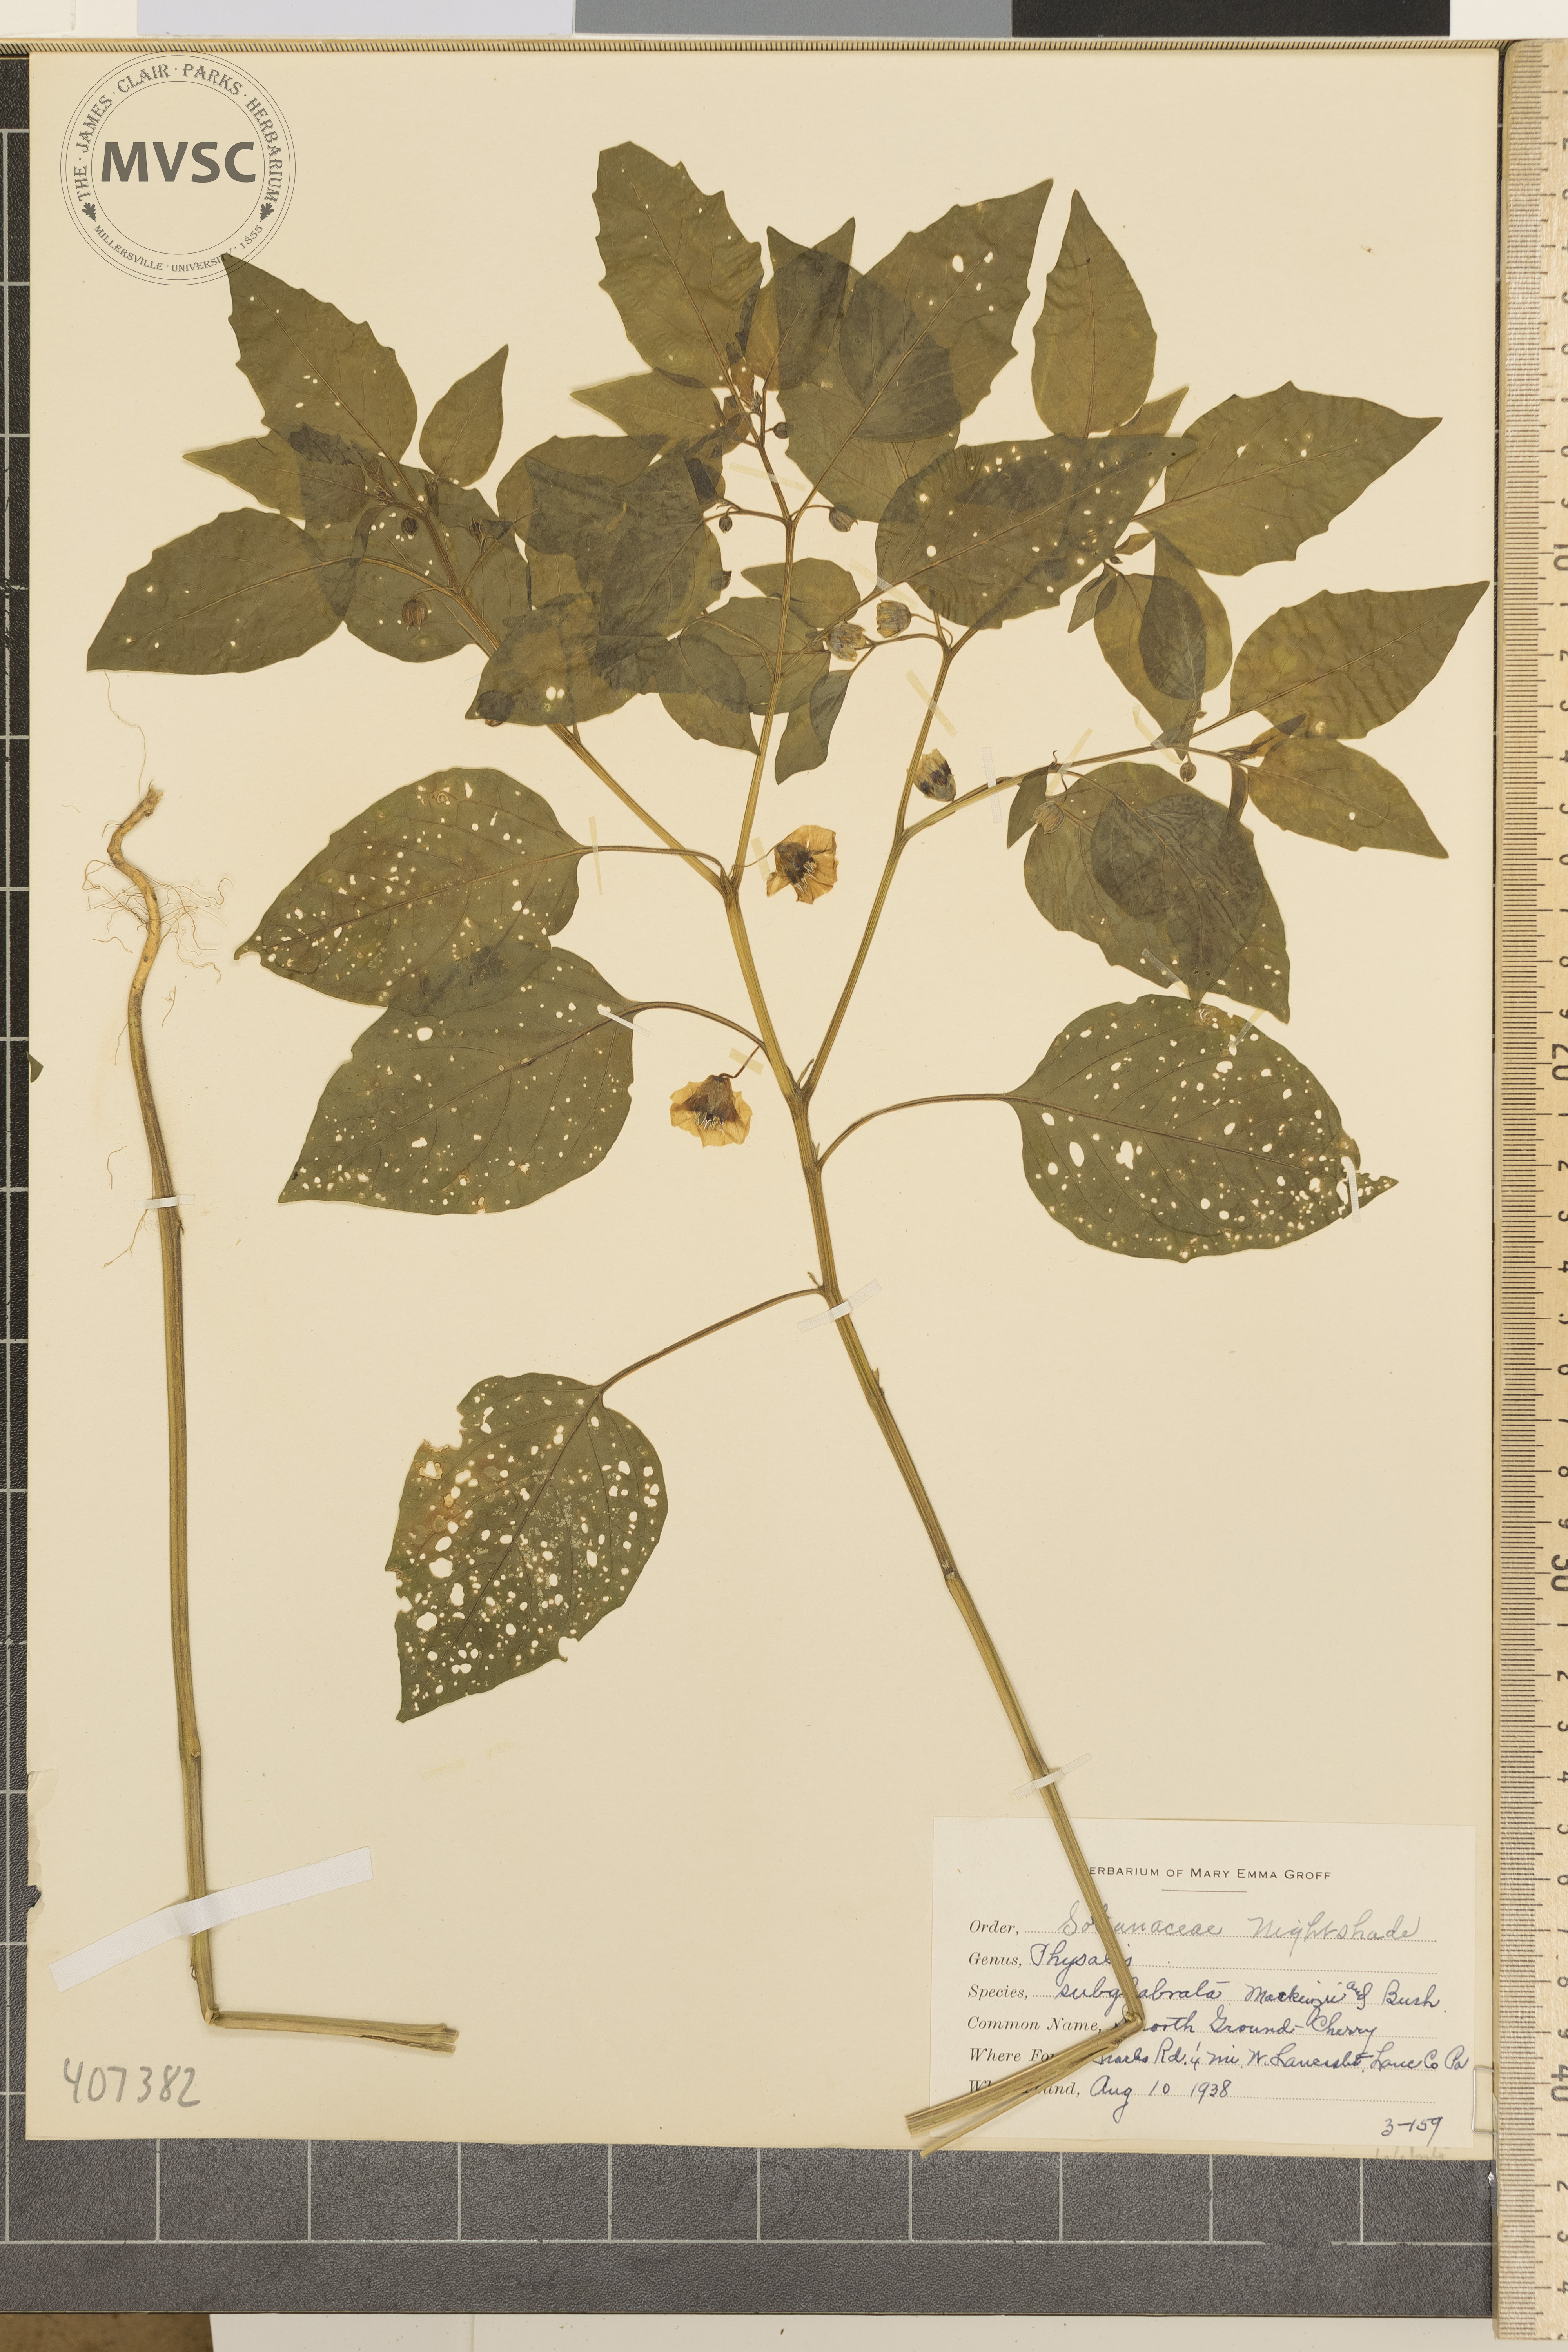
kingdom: Plantae
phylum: Tracheophyta
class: Magnoliopsida
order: Solanales
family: Solanaceae
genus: Physalis
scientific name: Physalis longifolia
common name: Smooth Ground-Cherry
